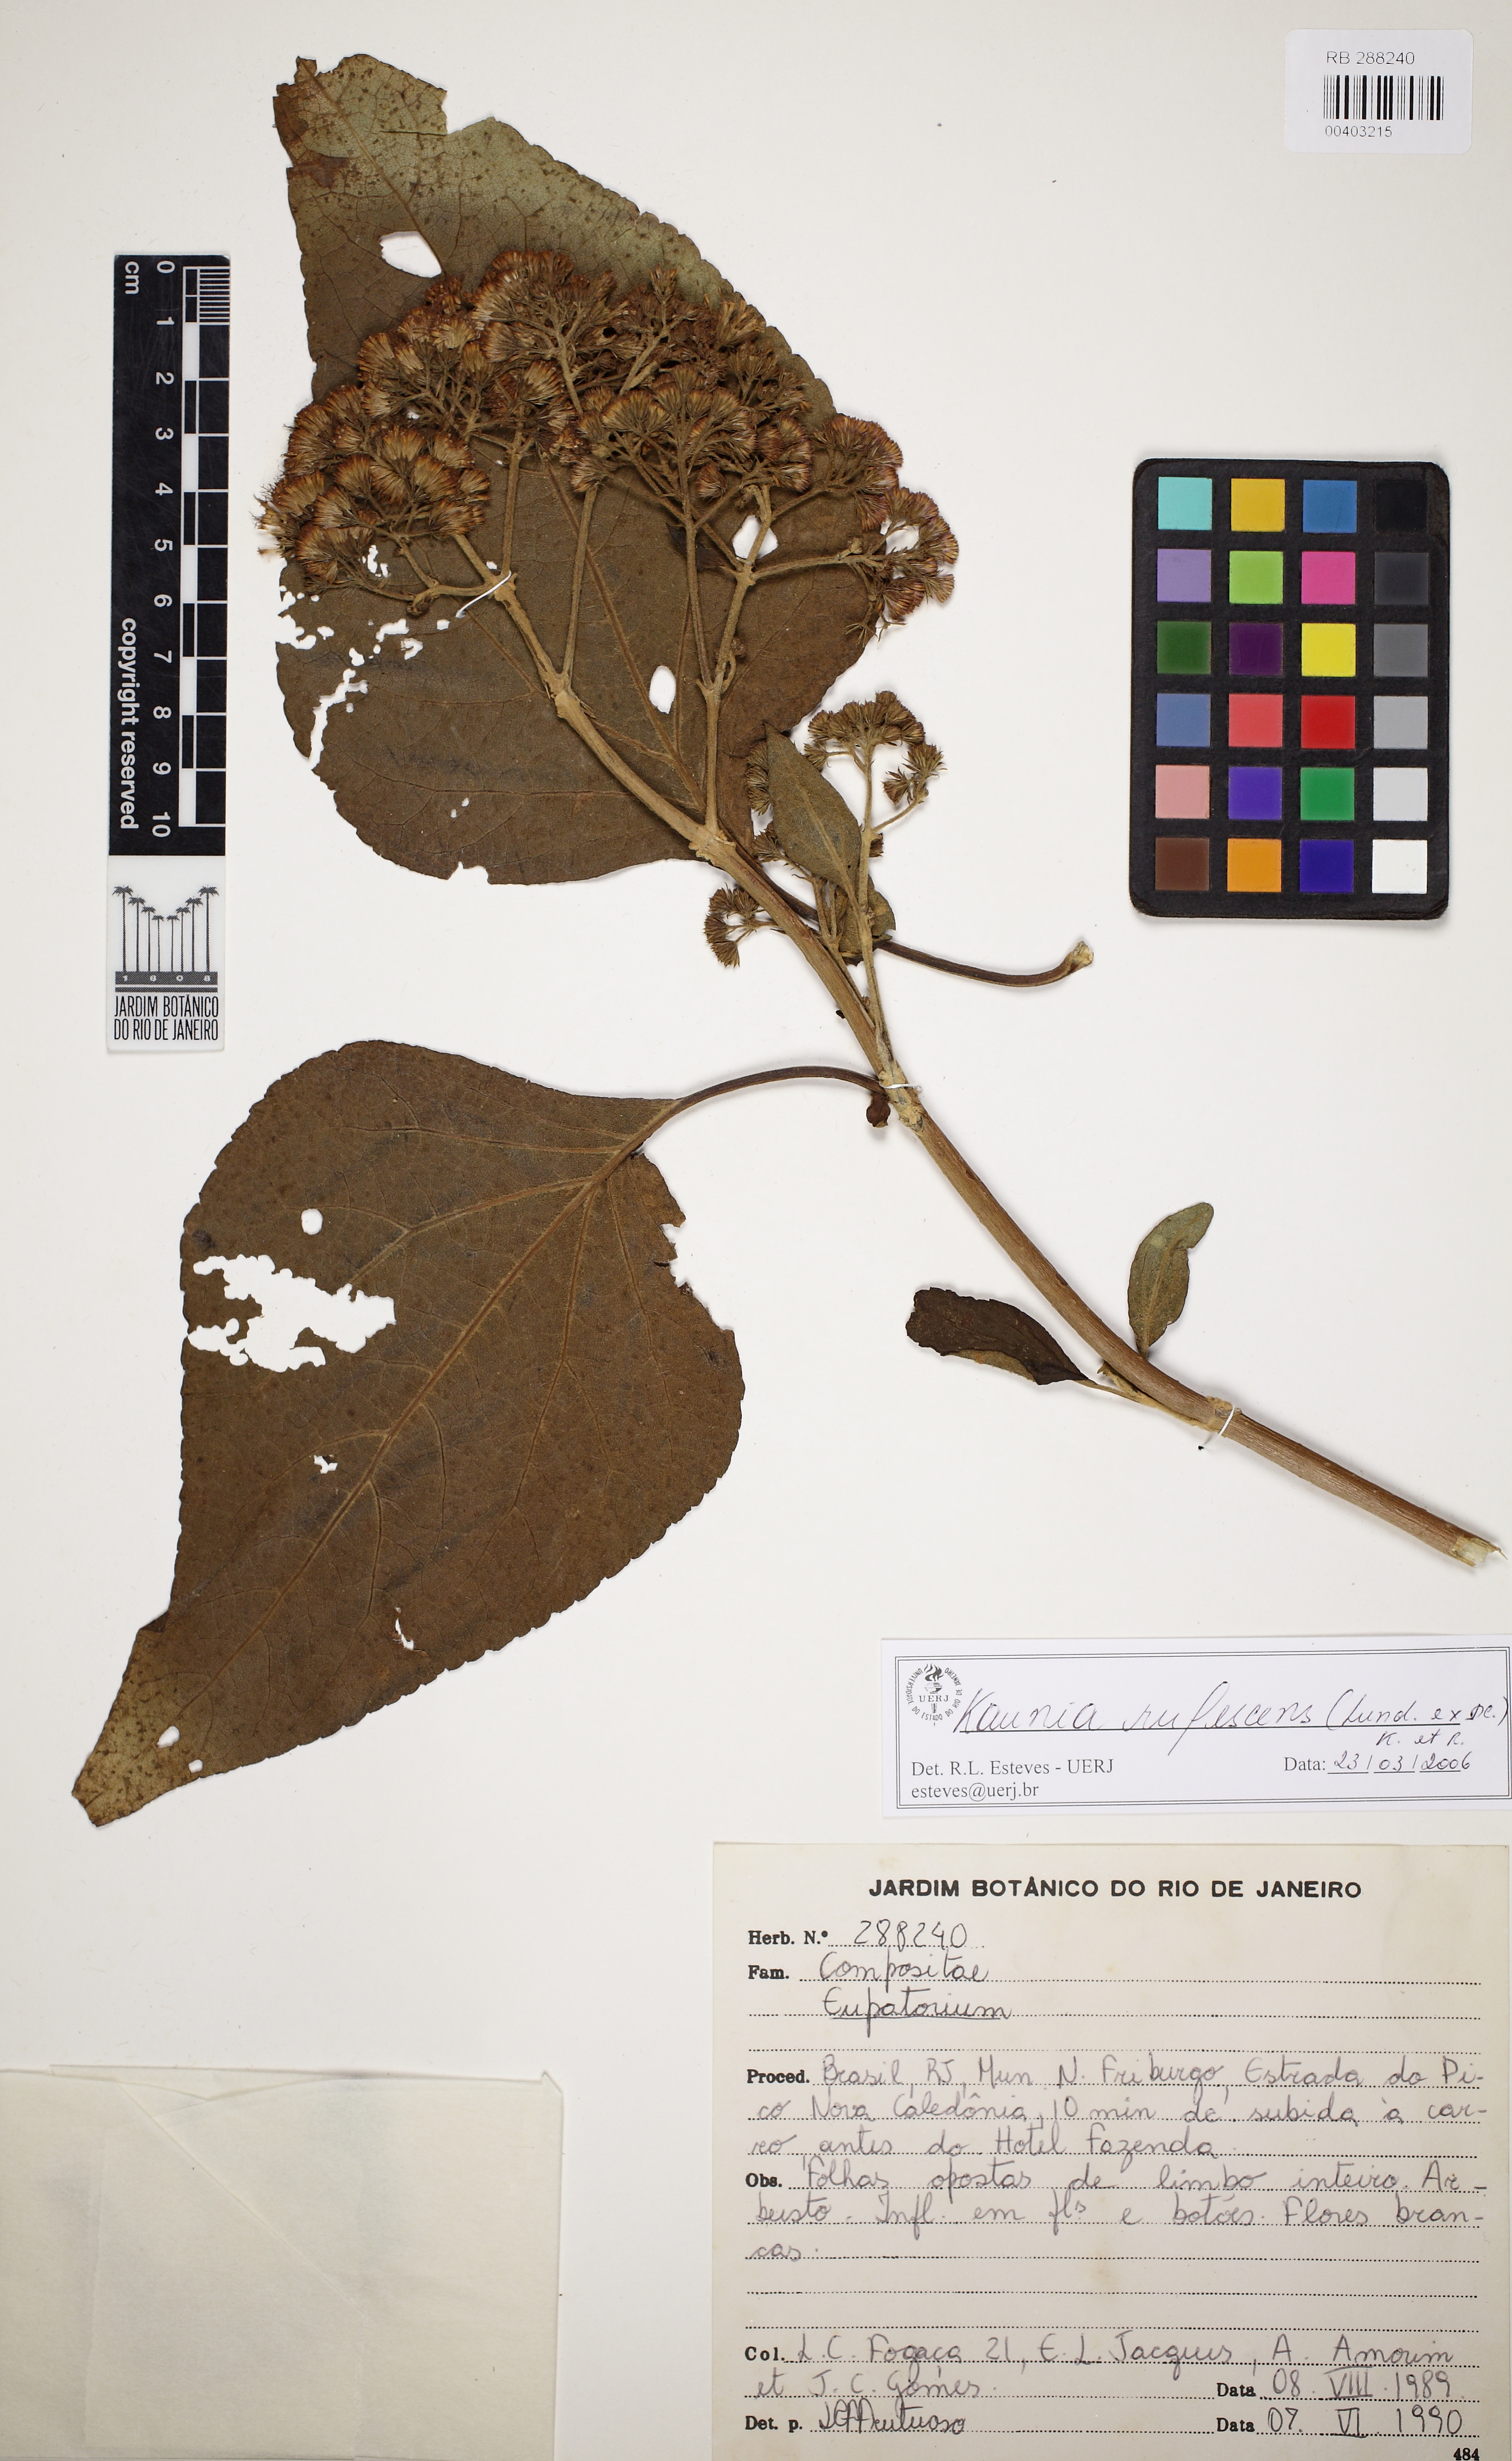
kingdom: Plantae
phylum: Tracheophyta
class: Magnoliopsida
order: Asterales
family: Asteraceae
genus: Kaunia
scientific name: Kaunia rufescens
